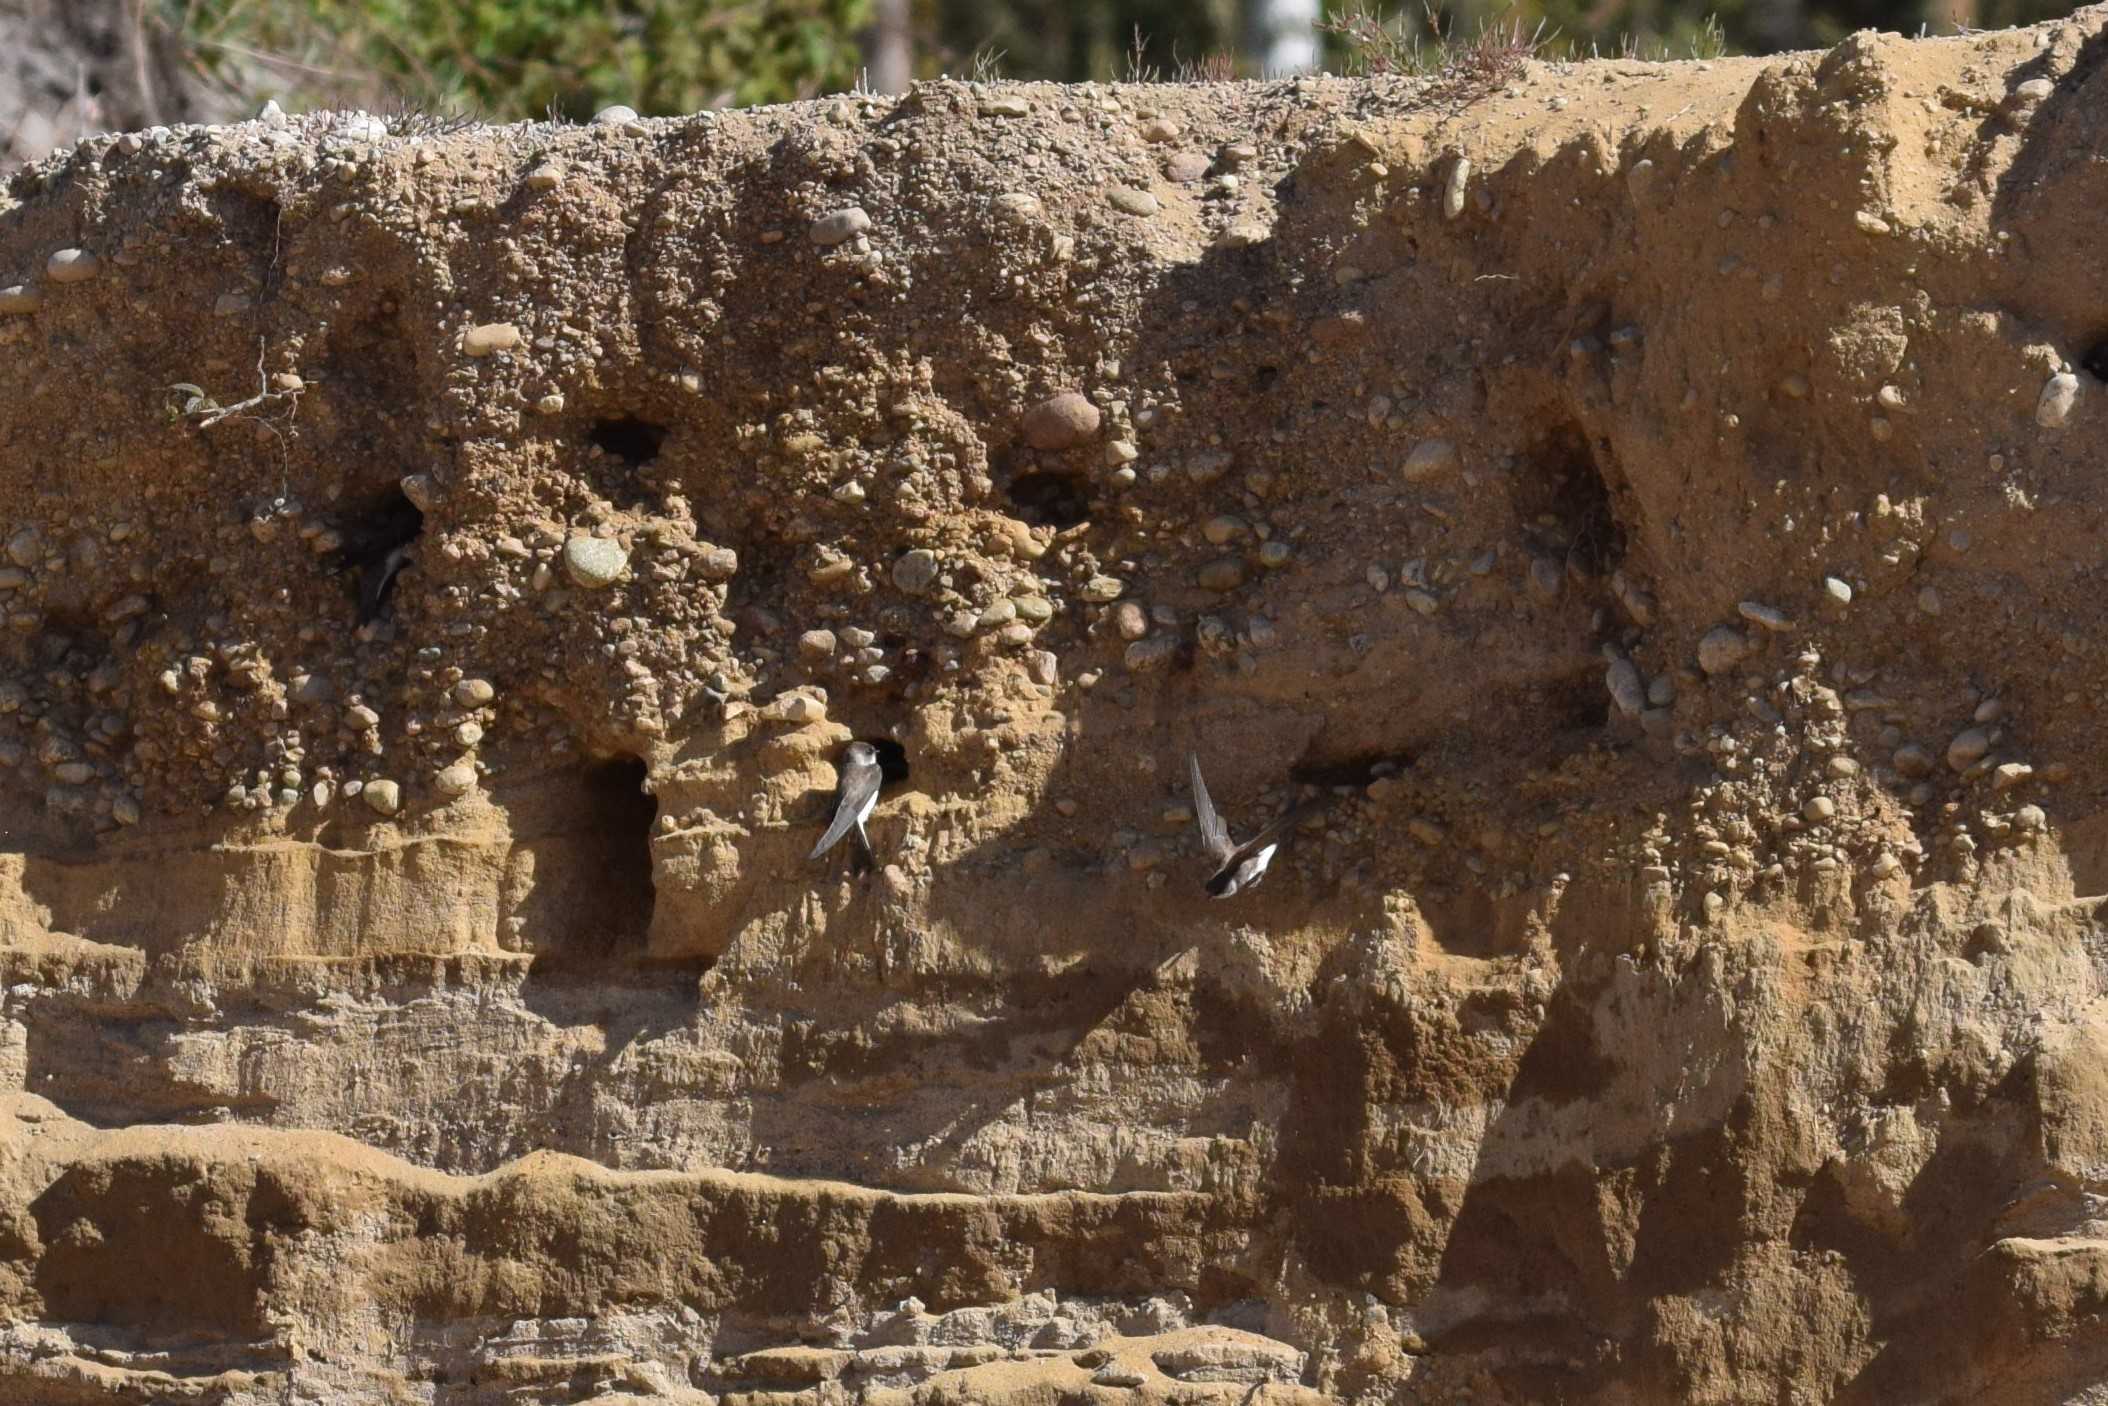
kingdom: Animalia
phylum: Chordata
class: Aves
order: Passeriformes
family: Hirundinidae
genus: Riparia
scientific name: Riparia riparia
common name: Digesvale
